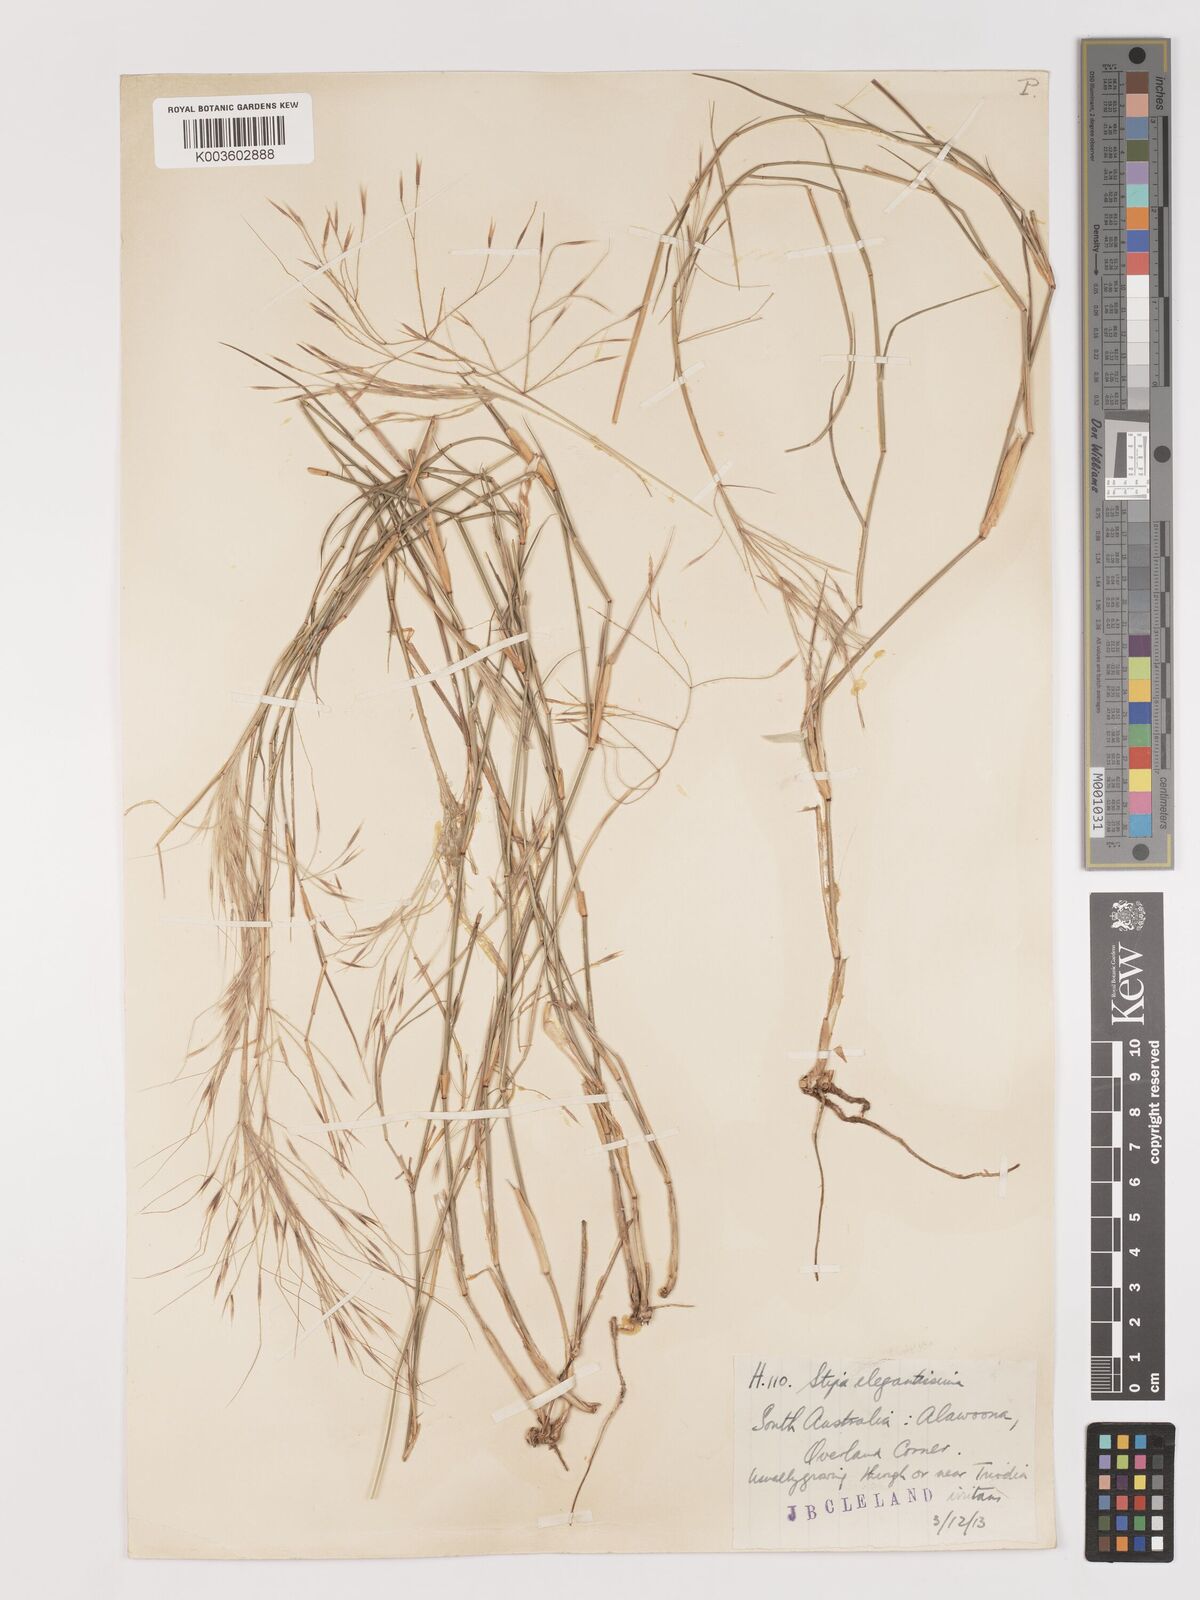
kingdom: Plantae
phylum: Tracheophyta
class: Liliopsida
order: Poales
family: Poaceae
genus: Austrostipa
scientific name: Austrostipa elegantissima
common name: Feather spear grass
